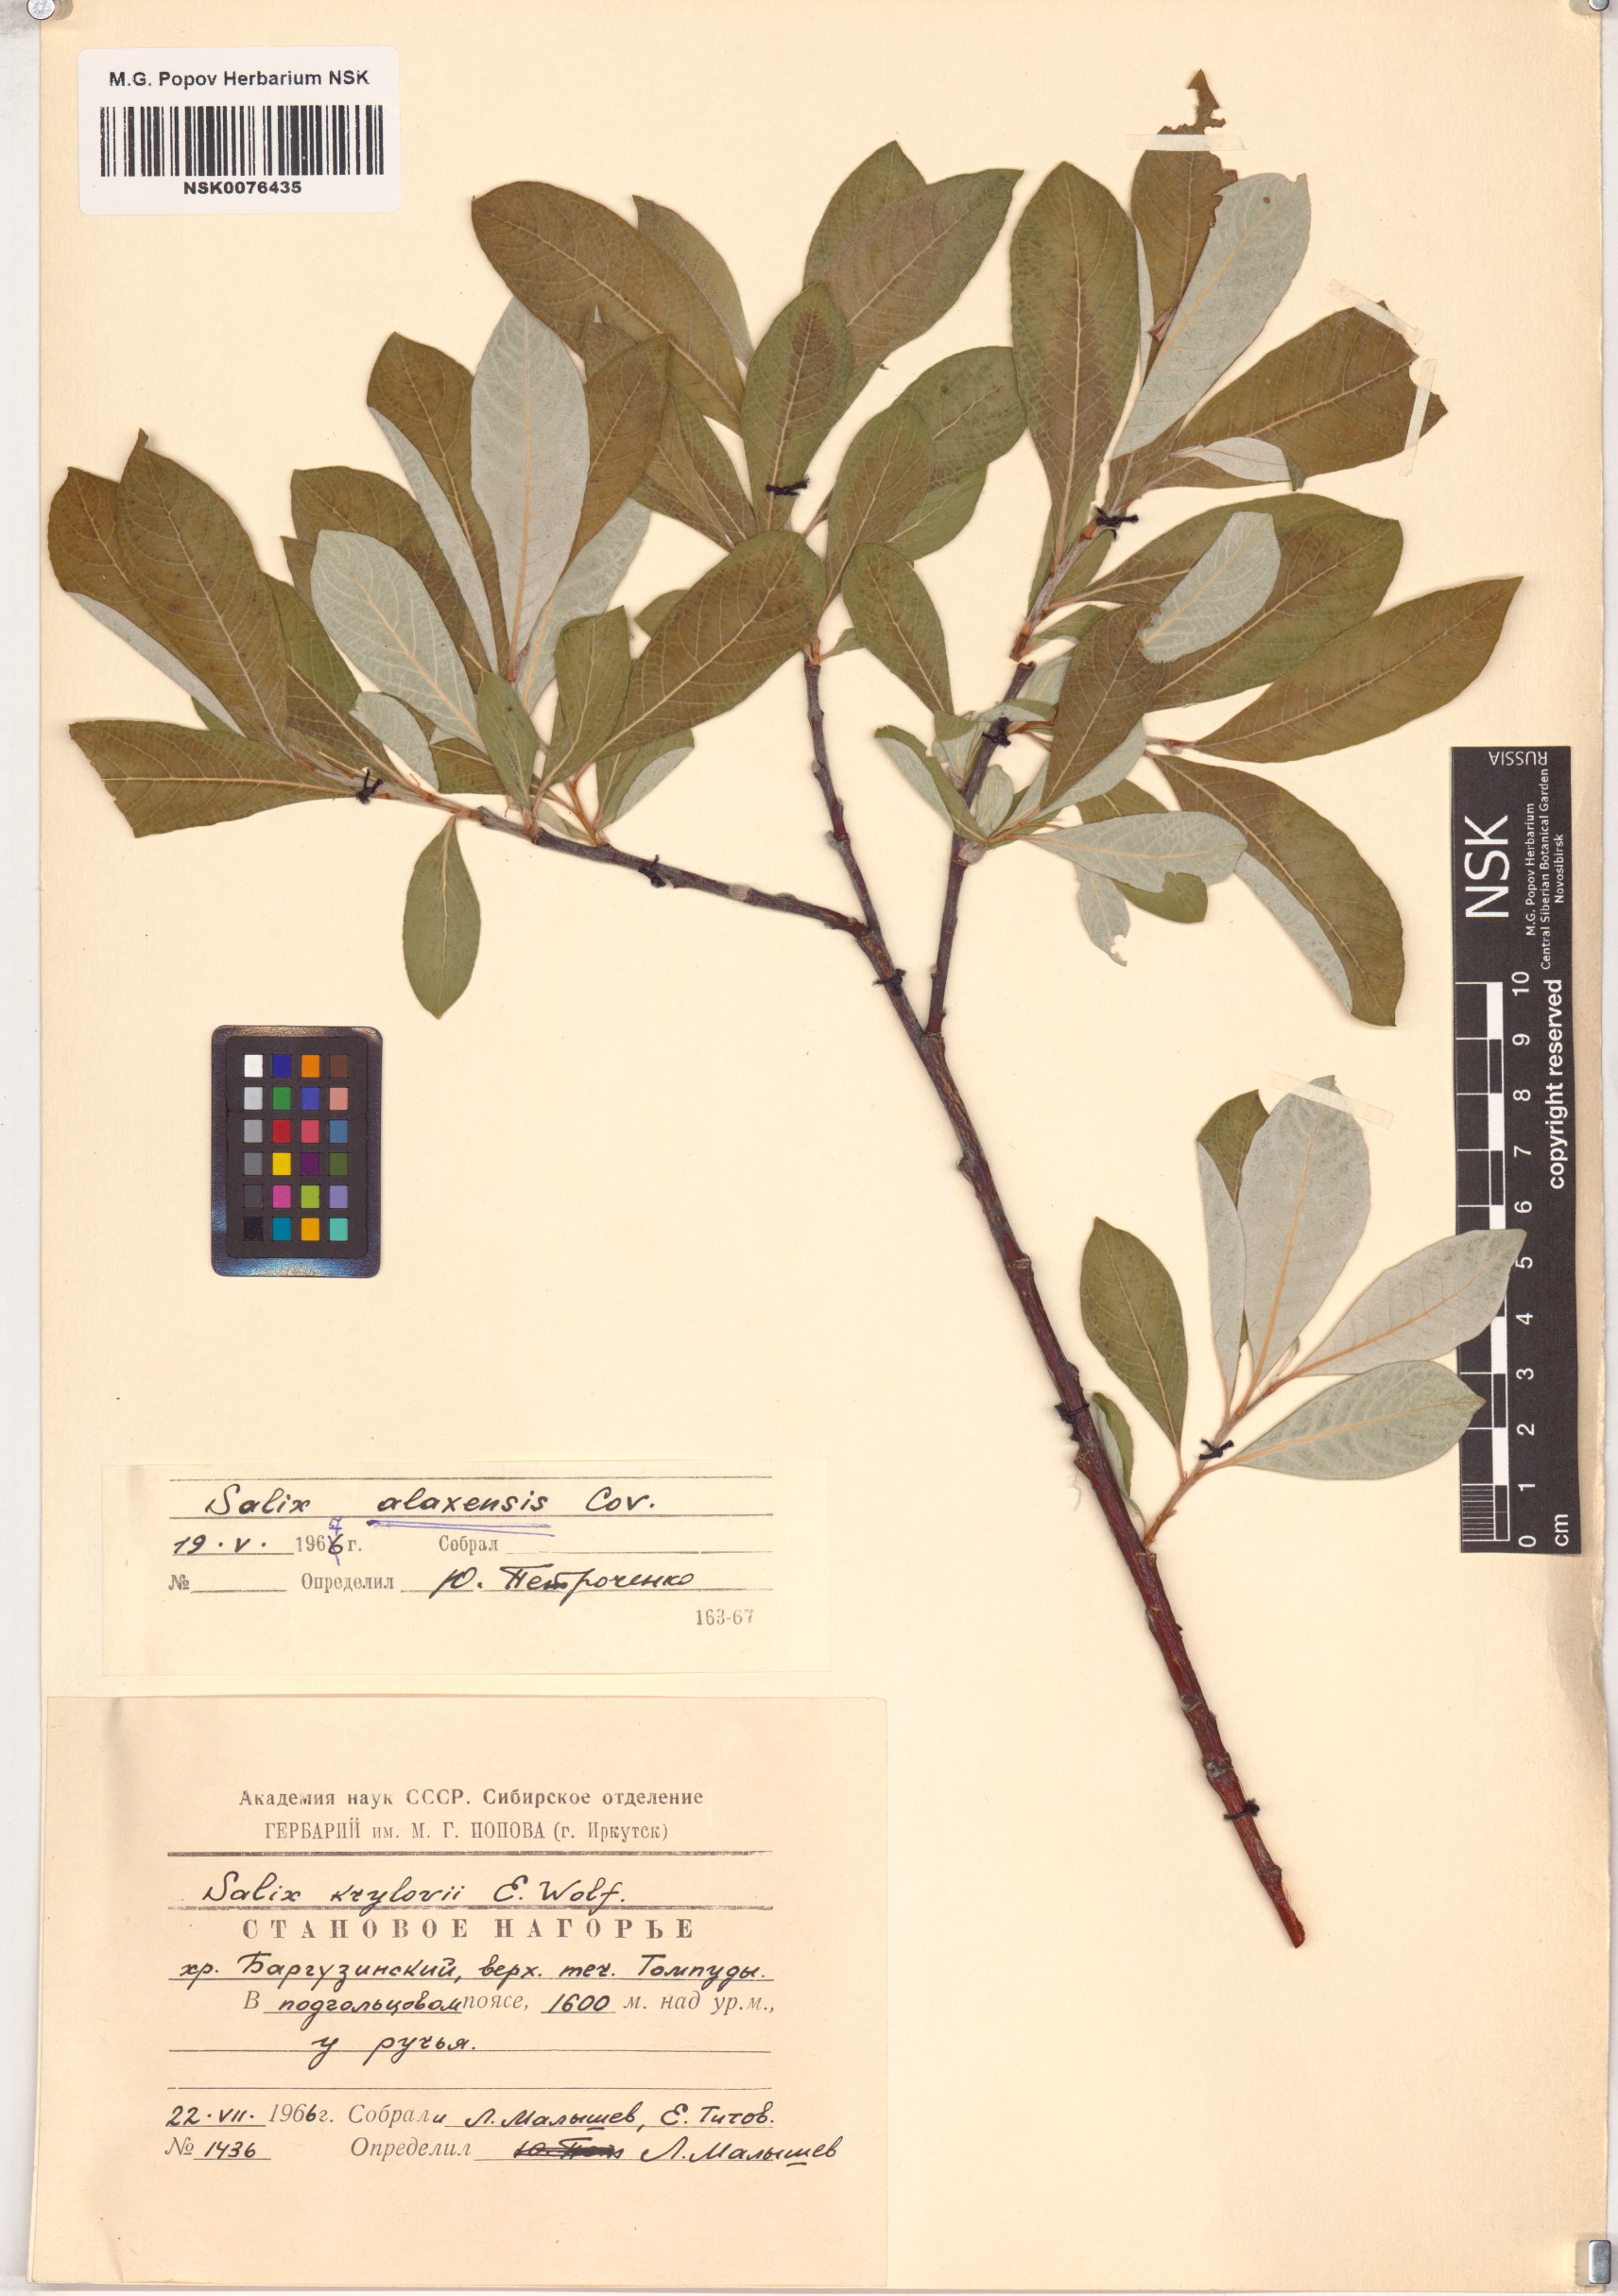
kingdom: Plantae
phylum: Tracheophyta
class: Magnoliopsida
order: Malpighiales
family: Salicaceae
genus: Salix
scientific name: Salix alaxensis
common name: Feltleaf willow
